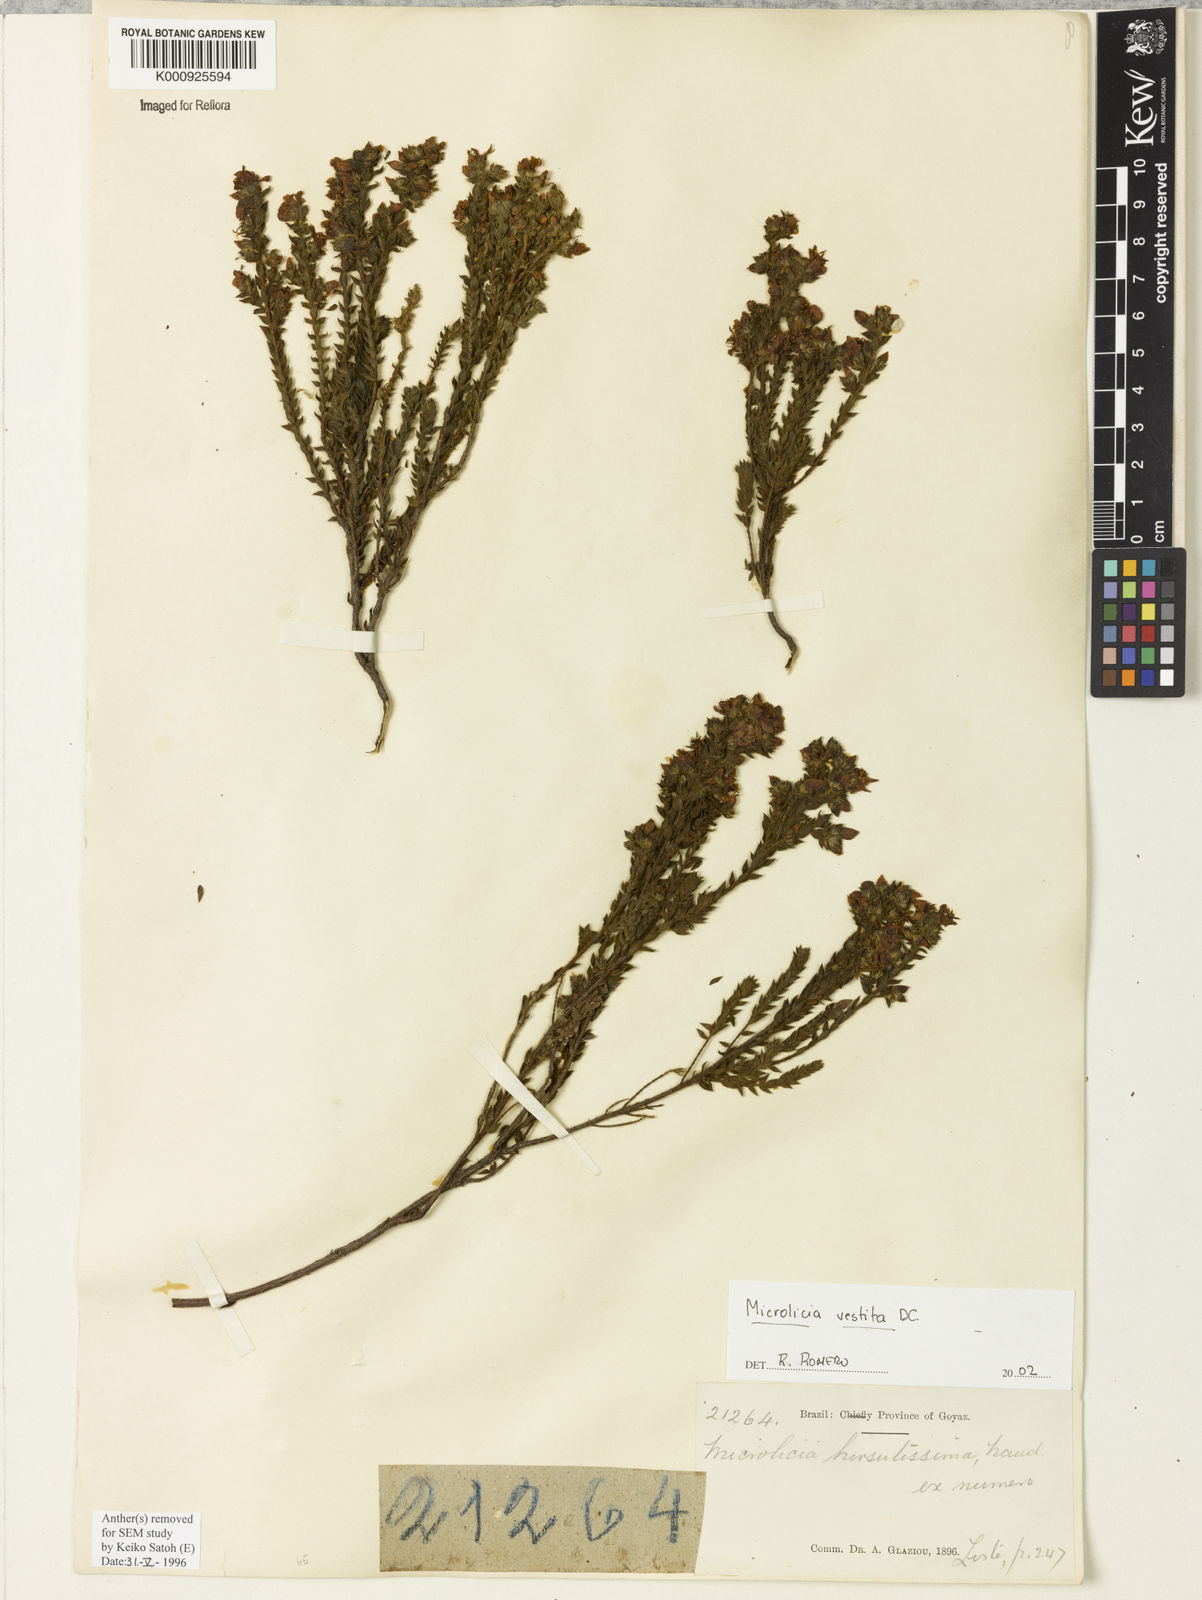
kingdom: Plantae
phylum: Tracheophyta
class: Magnoliopsida
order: Myrtales
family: Melastomataceae
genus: Microlicia
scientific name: Microlicia vestita
